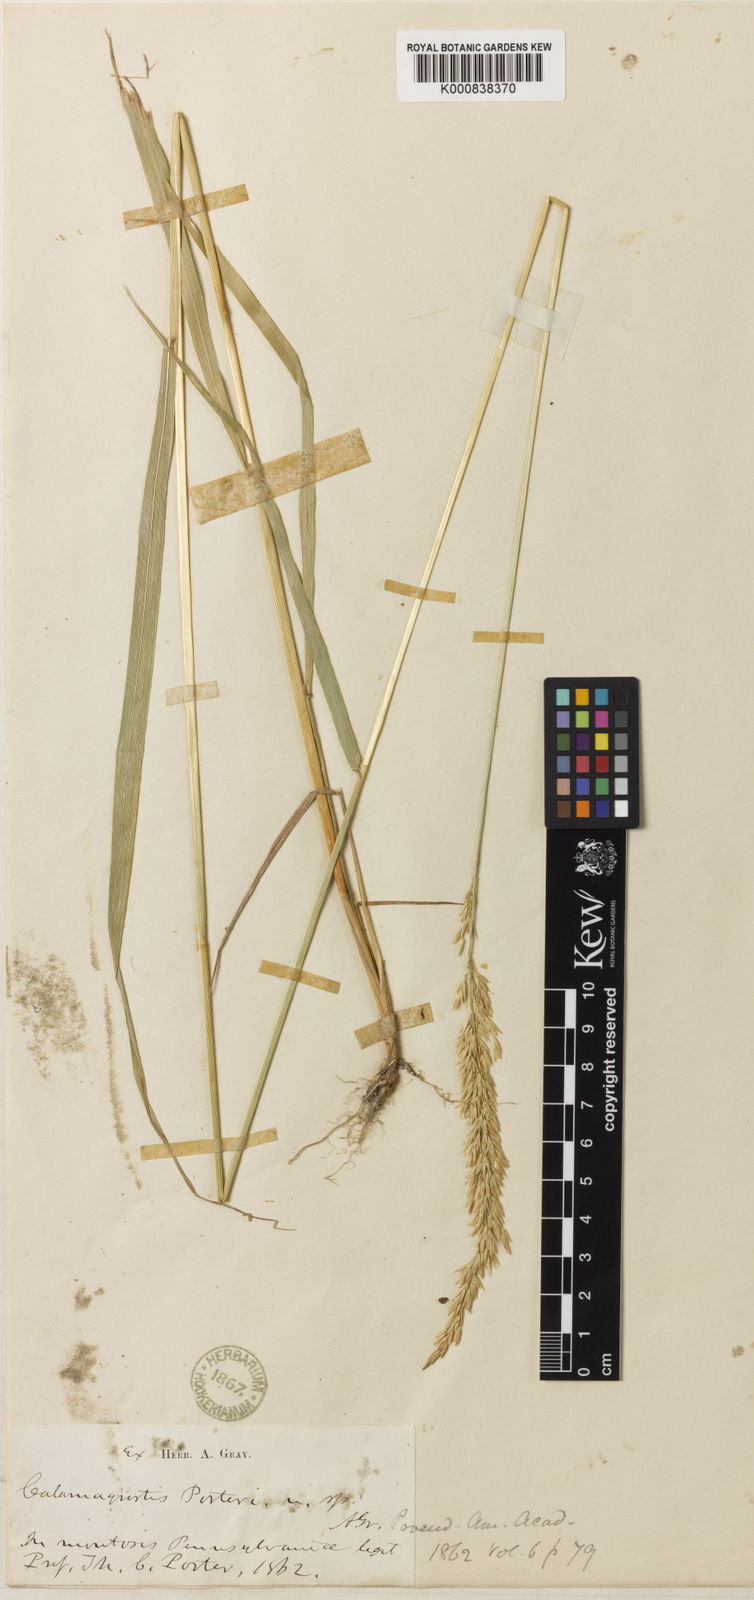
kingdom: Plantae
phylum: Tracheophyta
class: Liliopsida
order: Poales
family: Poaceae
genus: Calamagrostis
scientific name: Calamagrostis porteri
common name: Porter's reed grass
